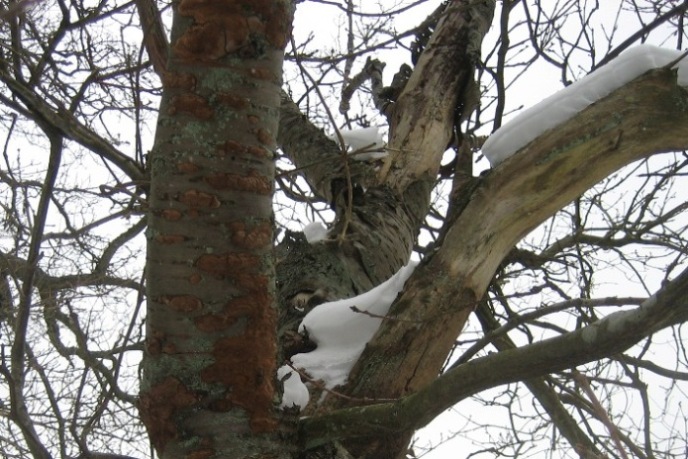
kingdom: Fungi
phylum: Basidiomycota
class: Agaricomycetes
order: Hymenochaetales
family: Hymenochaetaceae
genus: Phellinus
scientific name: Phellinus pomaceus
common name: blomme-ildporesvamp
